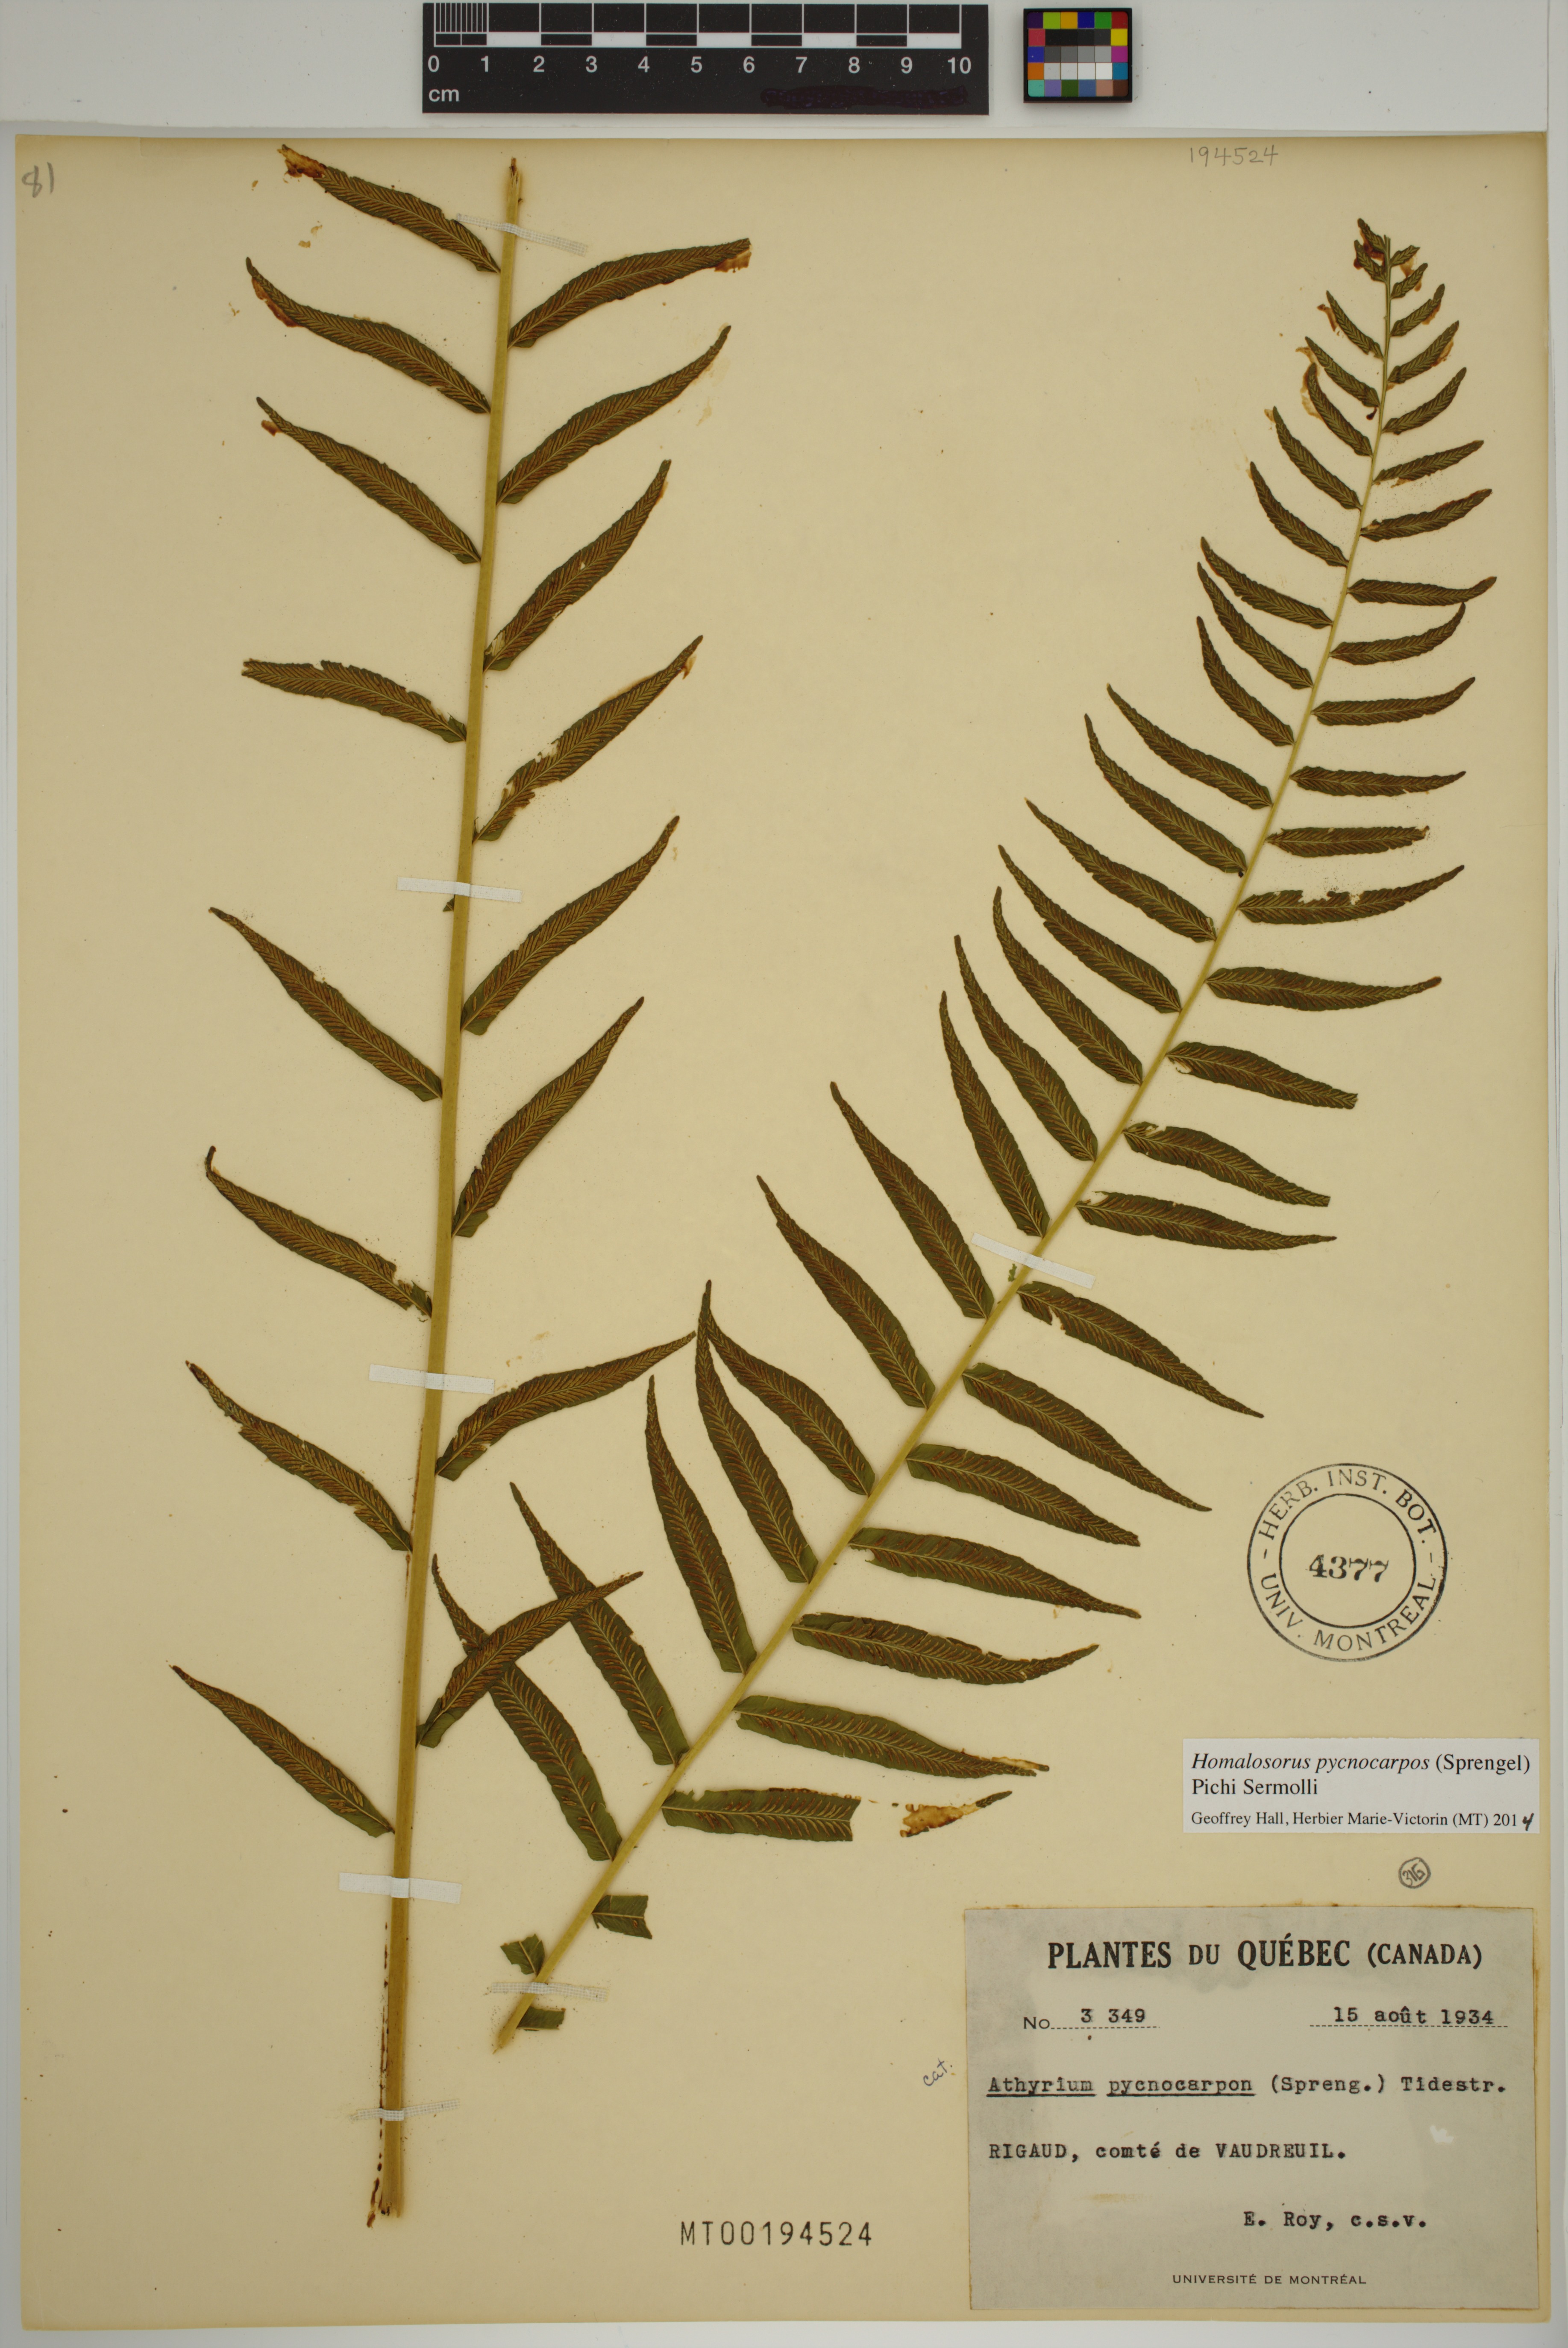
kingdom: Plantae
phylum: Tracheophyta
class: Polypodiopsida
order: Polypodiales
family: Diplaziopsidaceae
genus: Homalosorus
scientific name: Homalosorus pycnocarpos
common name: Glade fern
